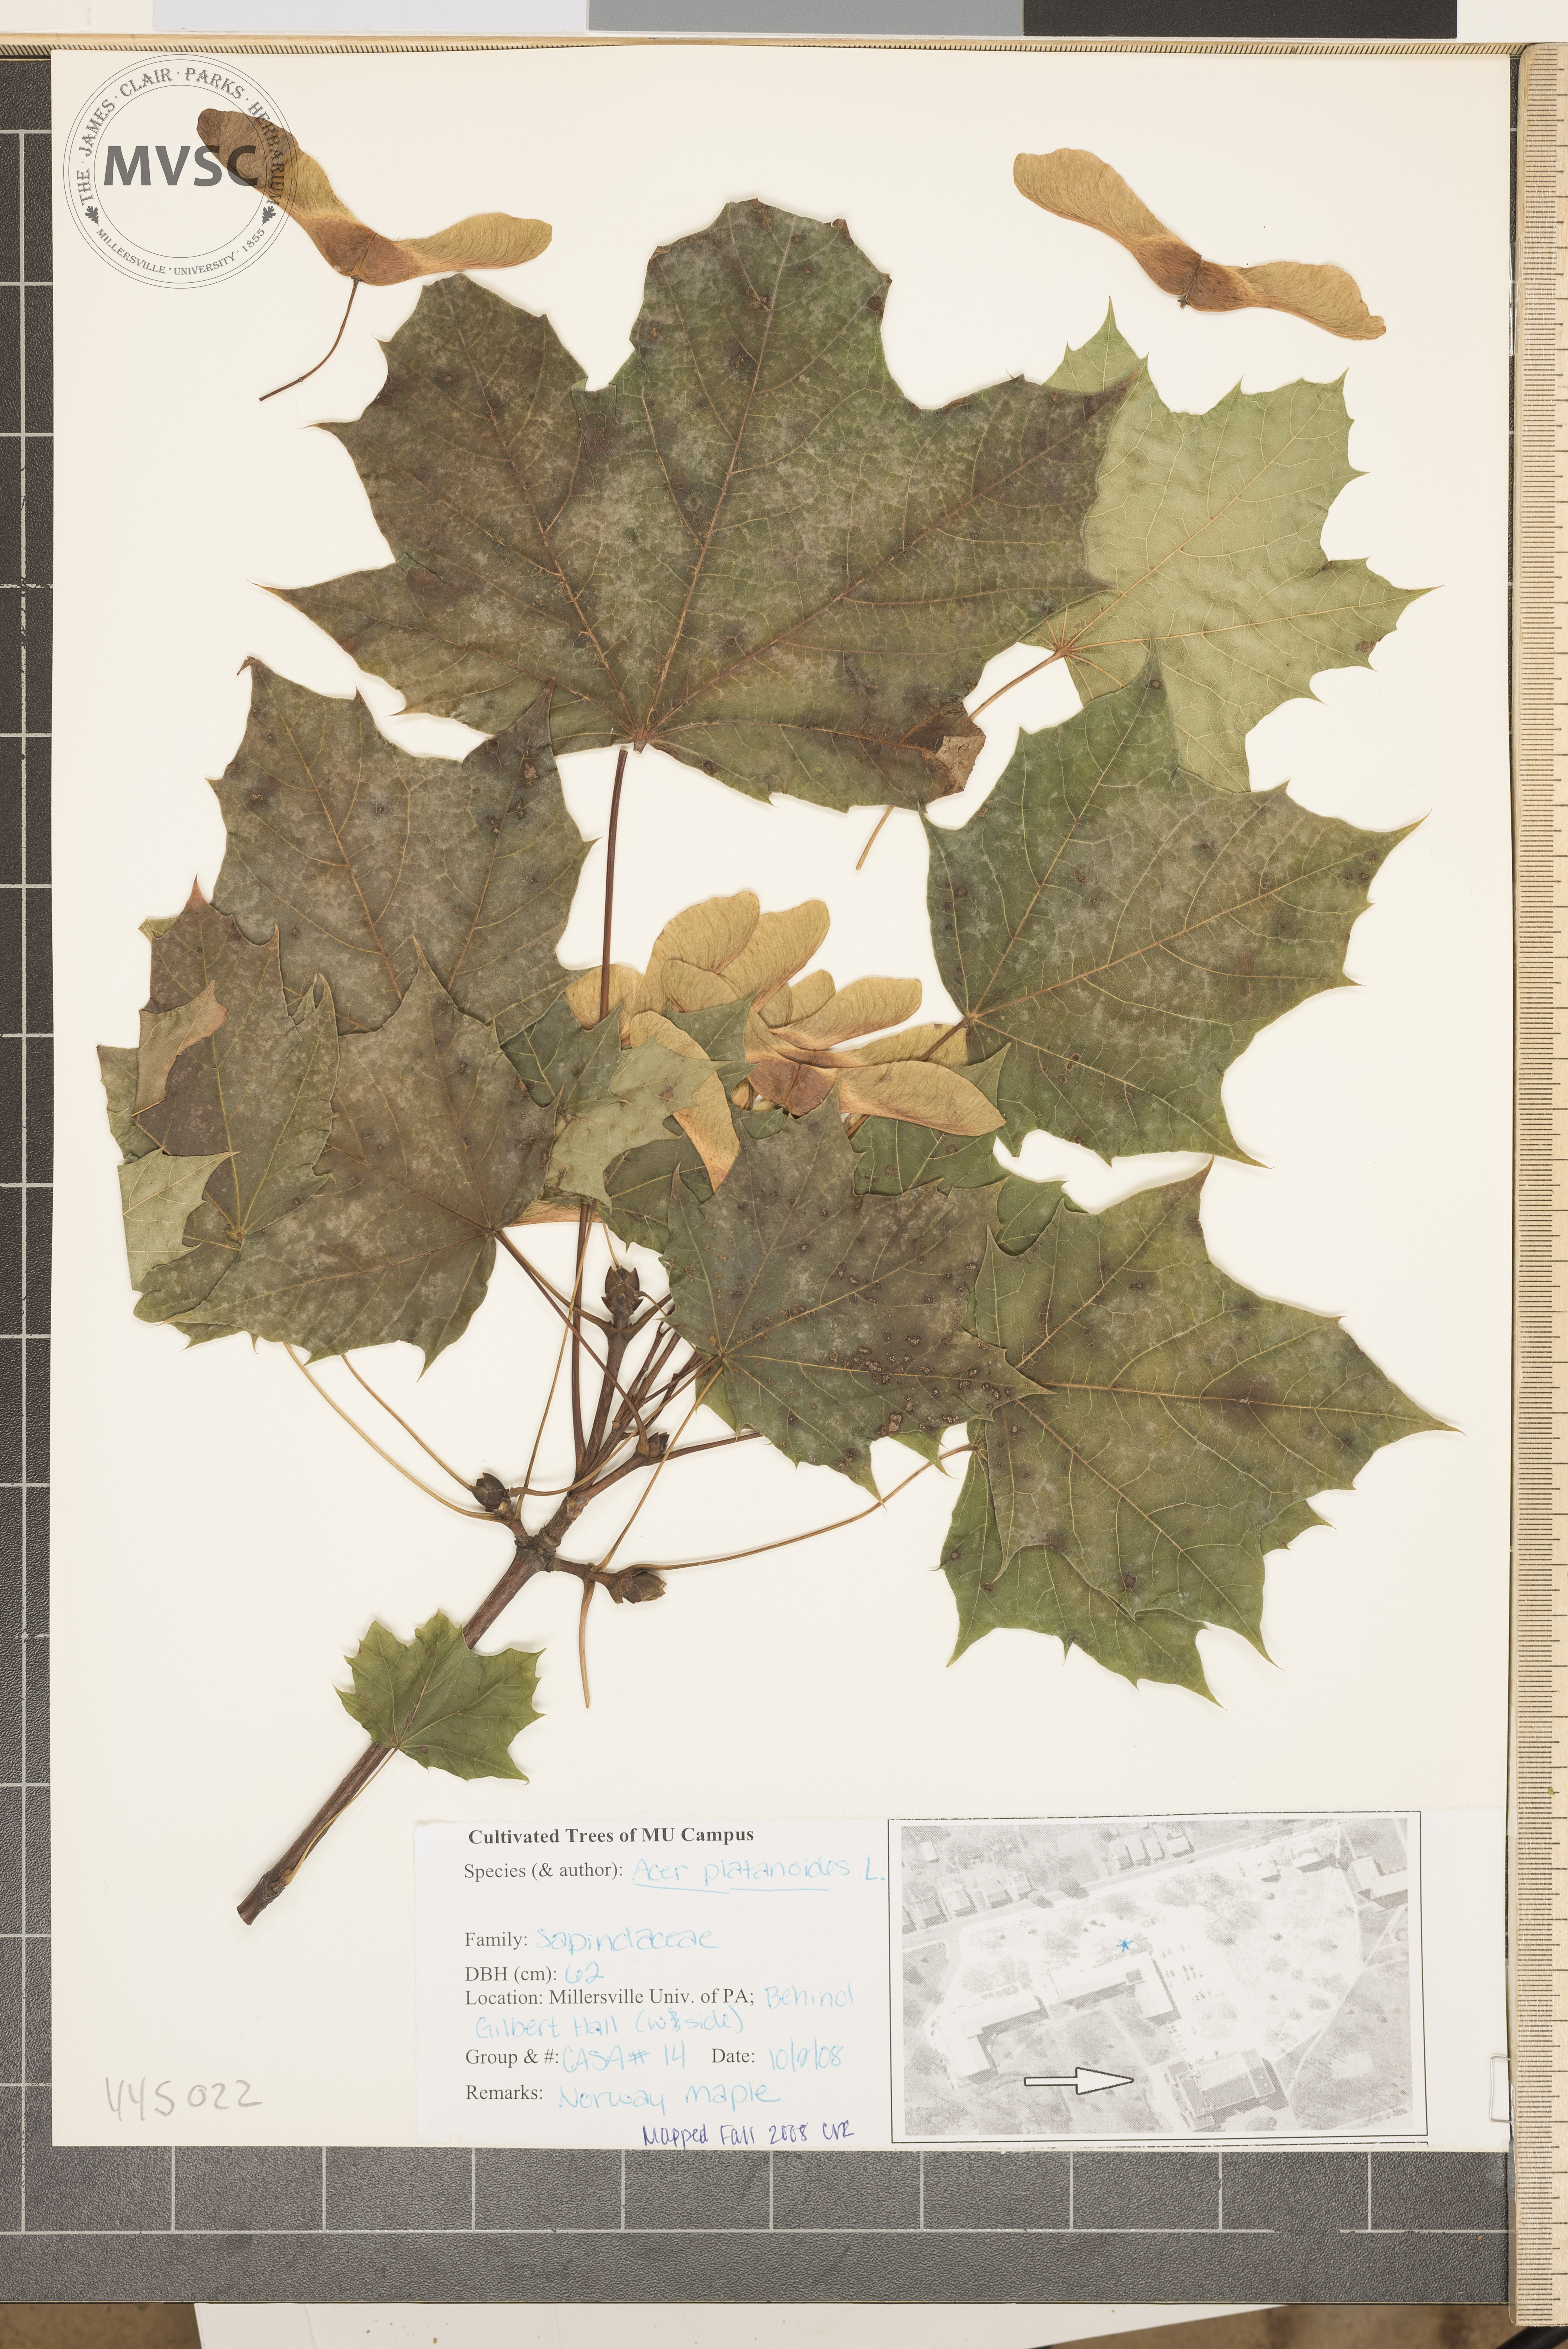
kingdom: Plantae
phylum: Tracheophyta
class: Magnoliopsida
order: Sapindales
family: Sapindaceae
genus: Acer
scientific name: Acer platanoides
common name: Norway maple
